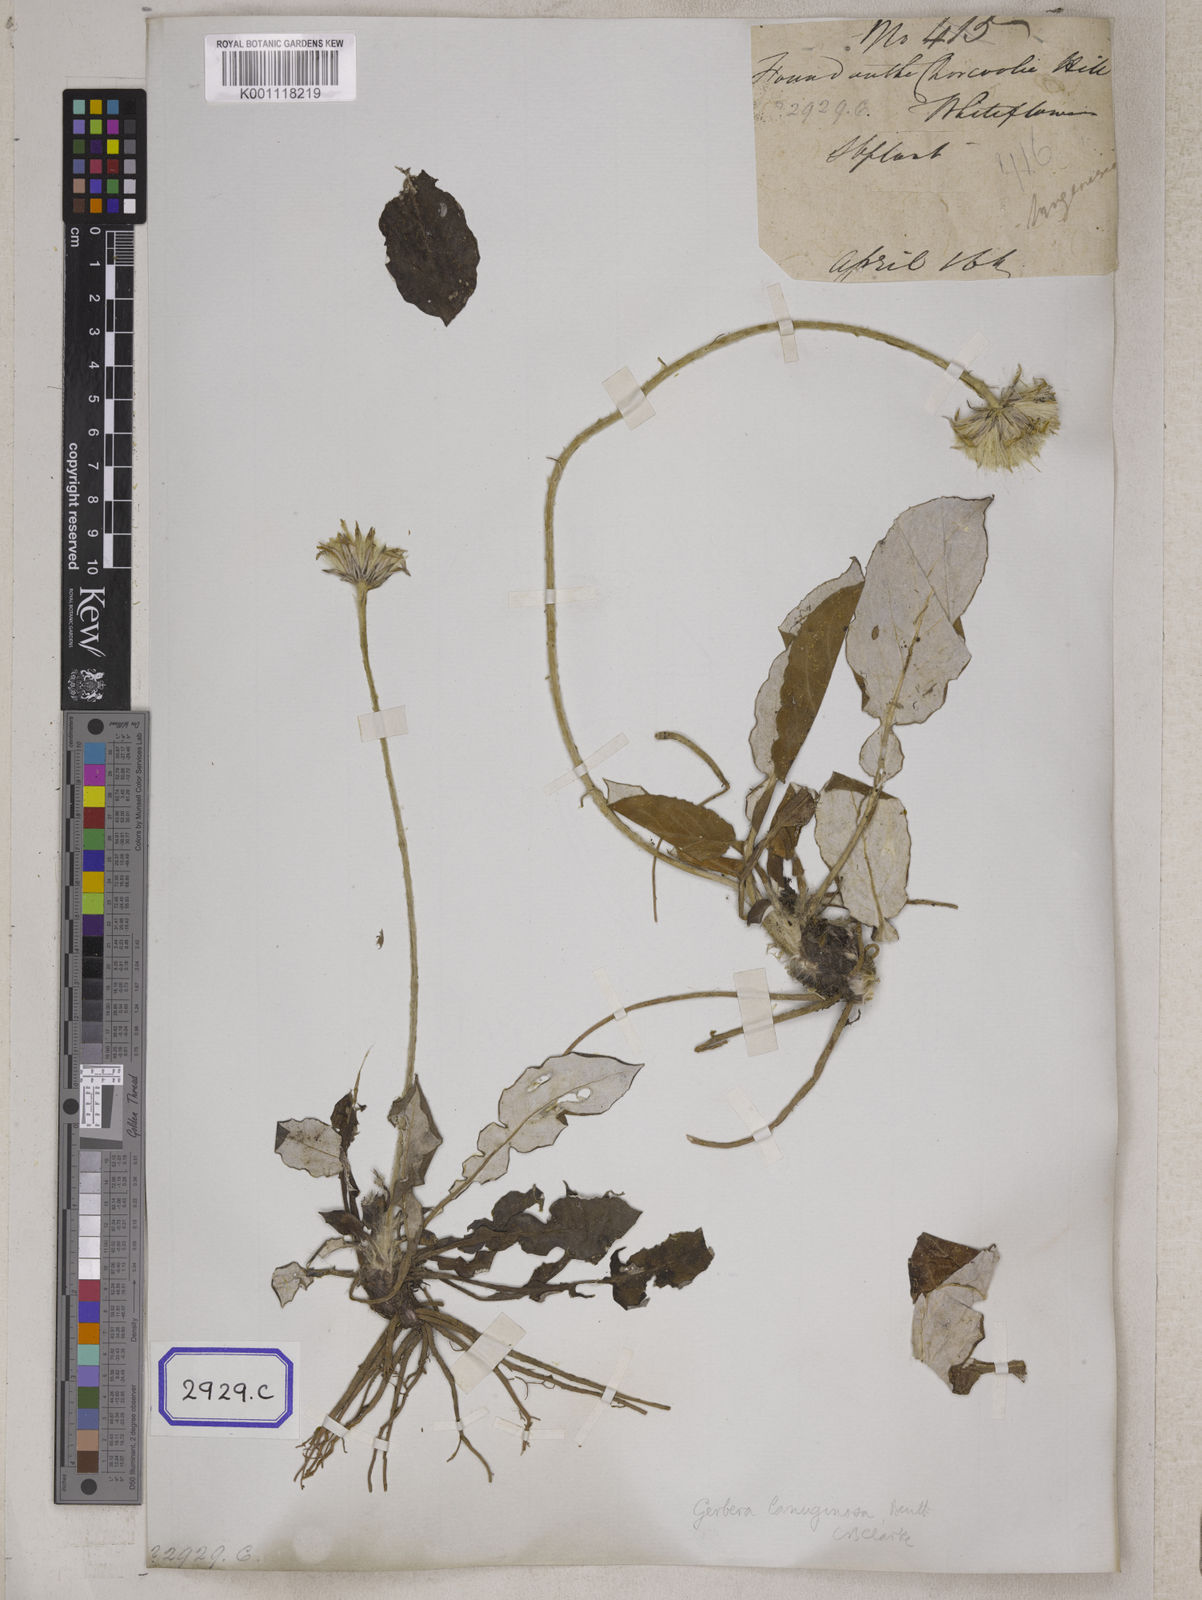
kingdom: Plantae
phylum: Tracheophyta
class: Magnoliopsida
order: Asterales
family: Asteraceae
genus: Onoseris
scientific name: Onoseris lanuginosa
